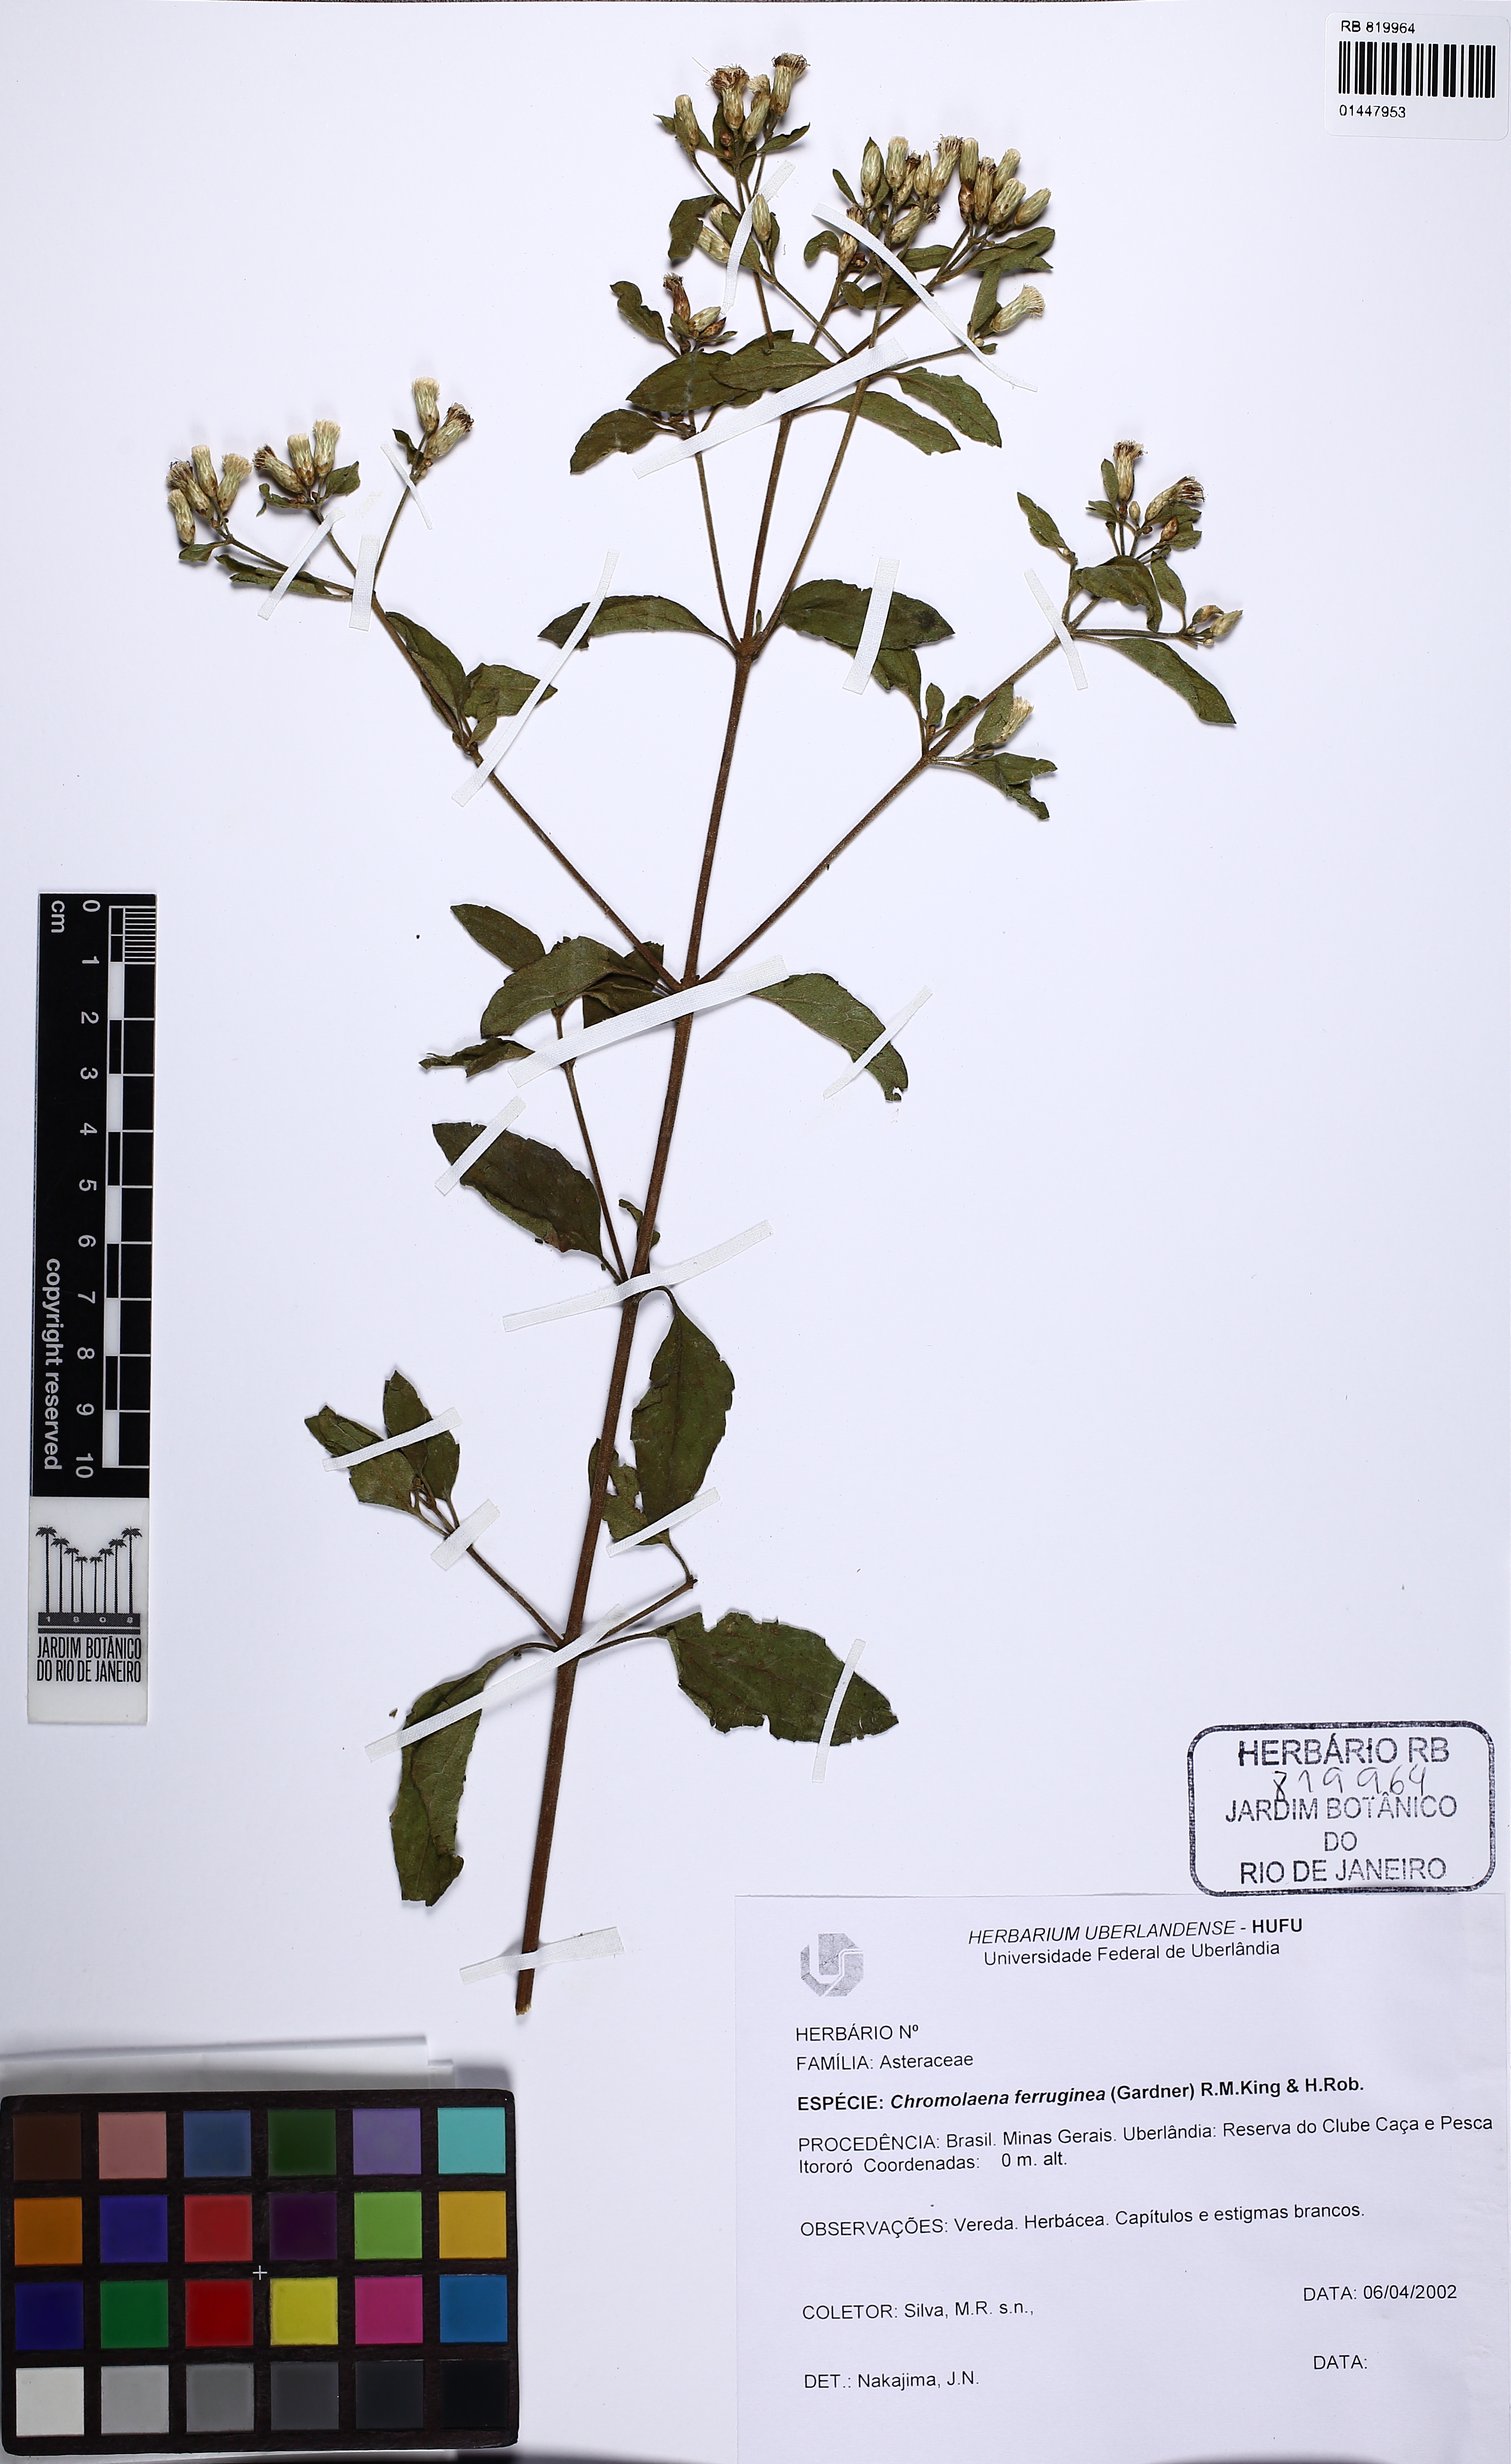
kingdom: Plantae
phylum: Tracheophyta
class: Magnoliopsida
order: Asterales
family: Asteraceae
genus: Chromolaena
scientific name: Chromolaena ferruginea
